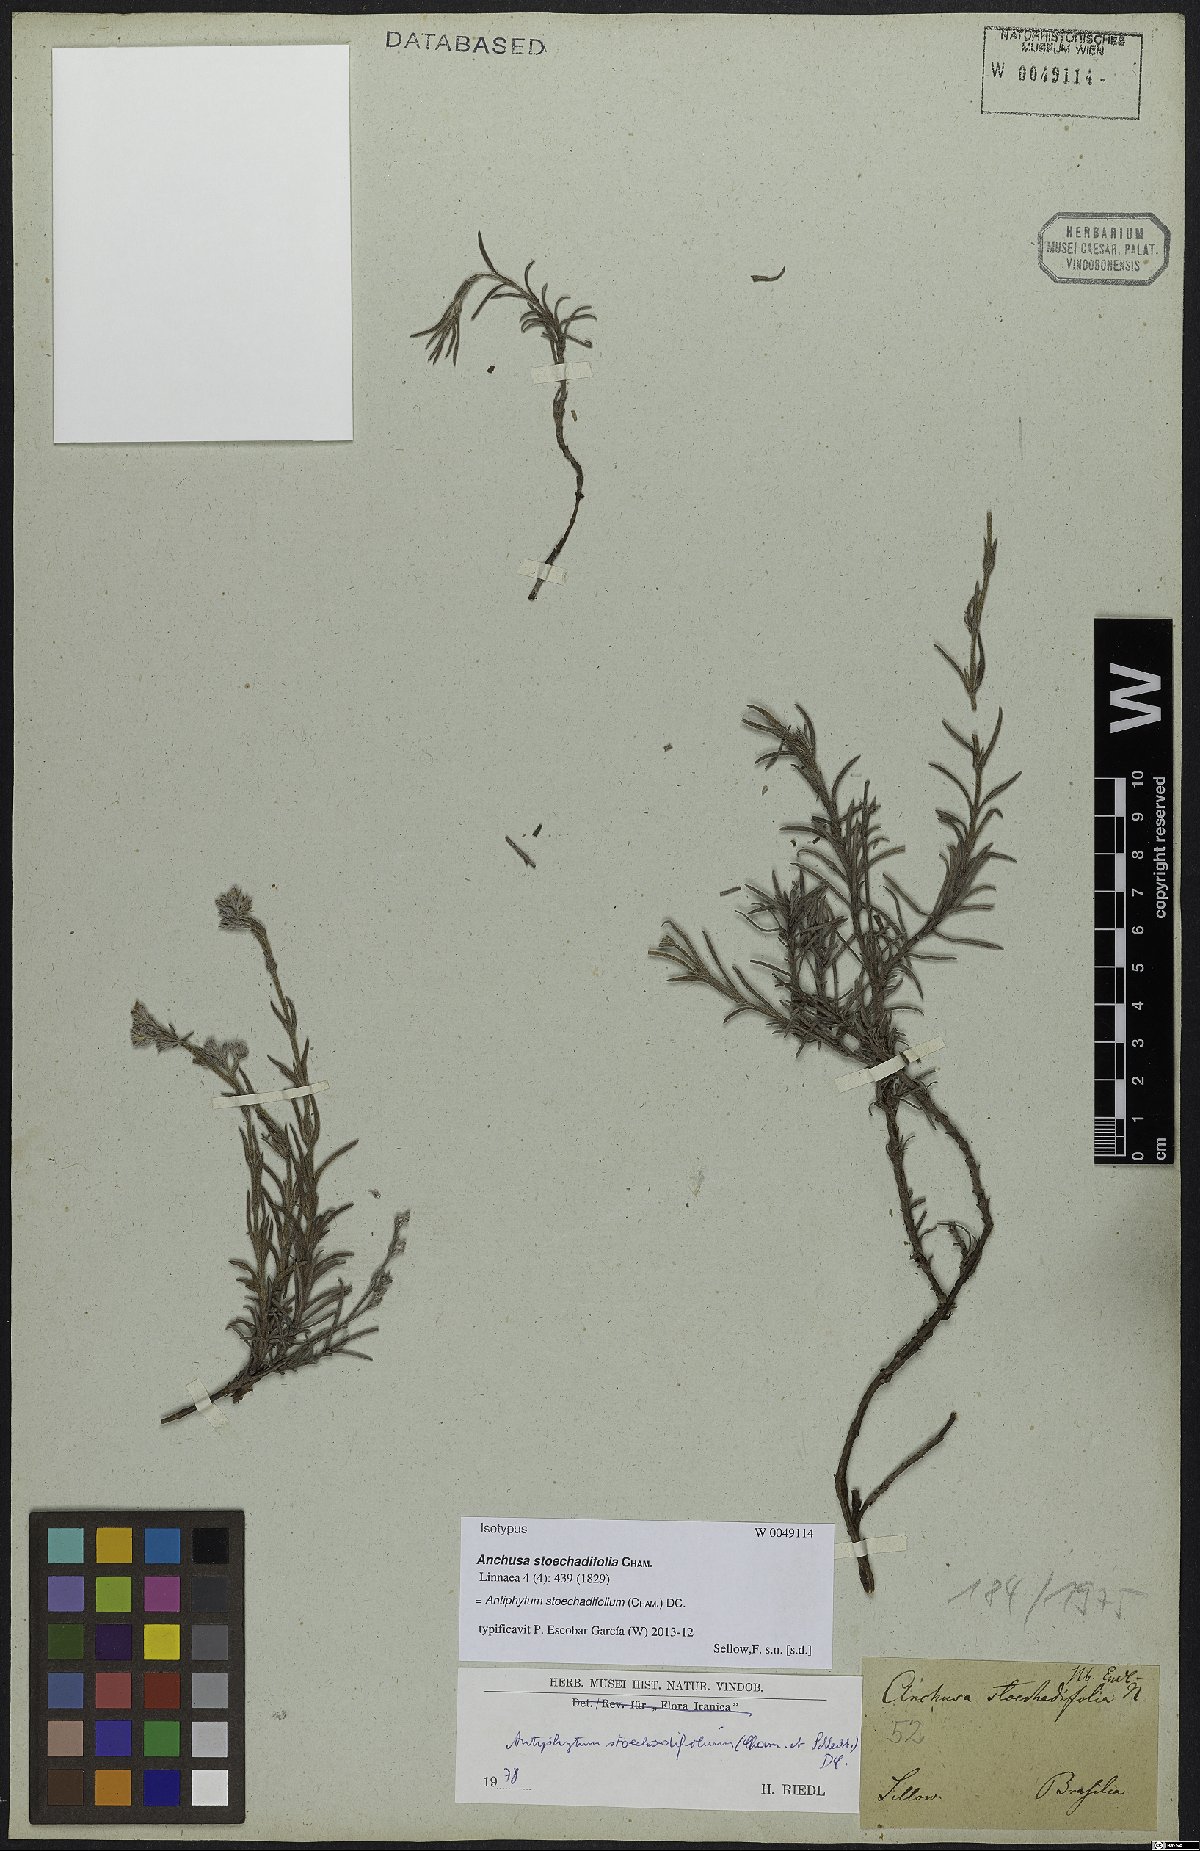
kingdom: Plantae
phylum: Tracheophyta
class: Magnoliopsida
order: Boraginales
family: Boraginaceae
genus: Antiphytum
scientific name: Antiphytum stoechadifolium
